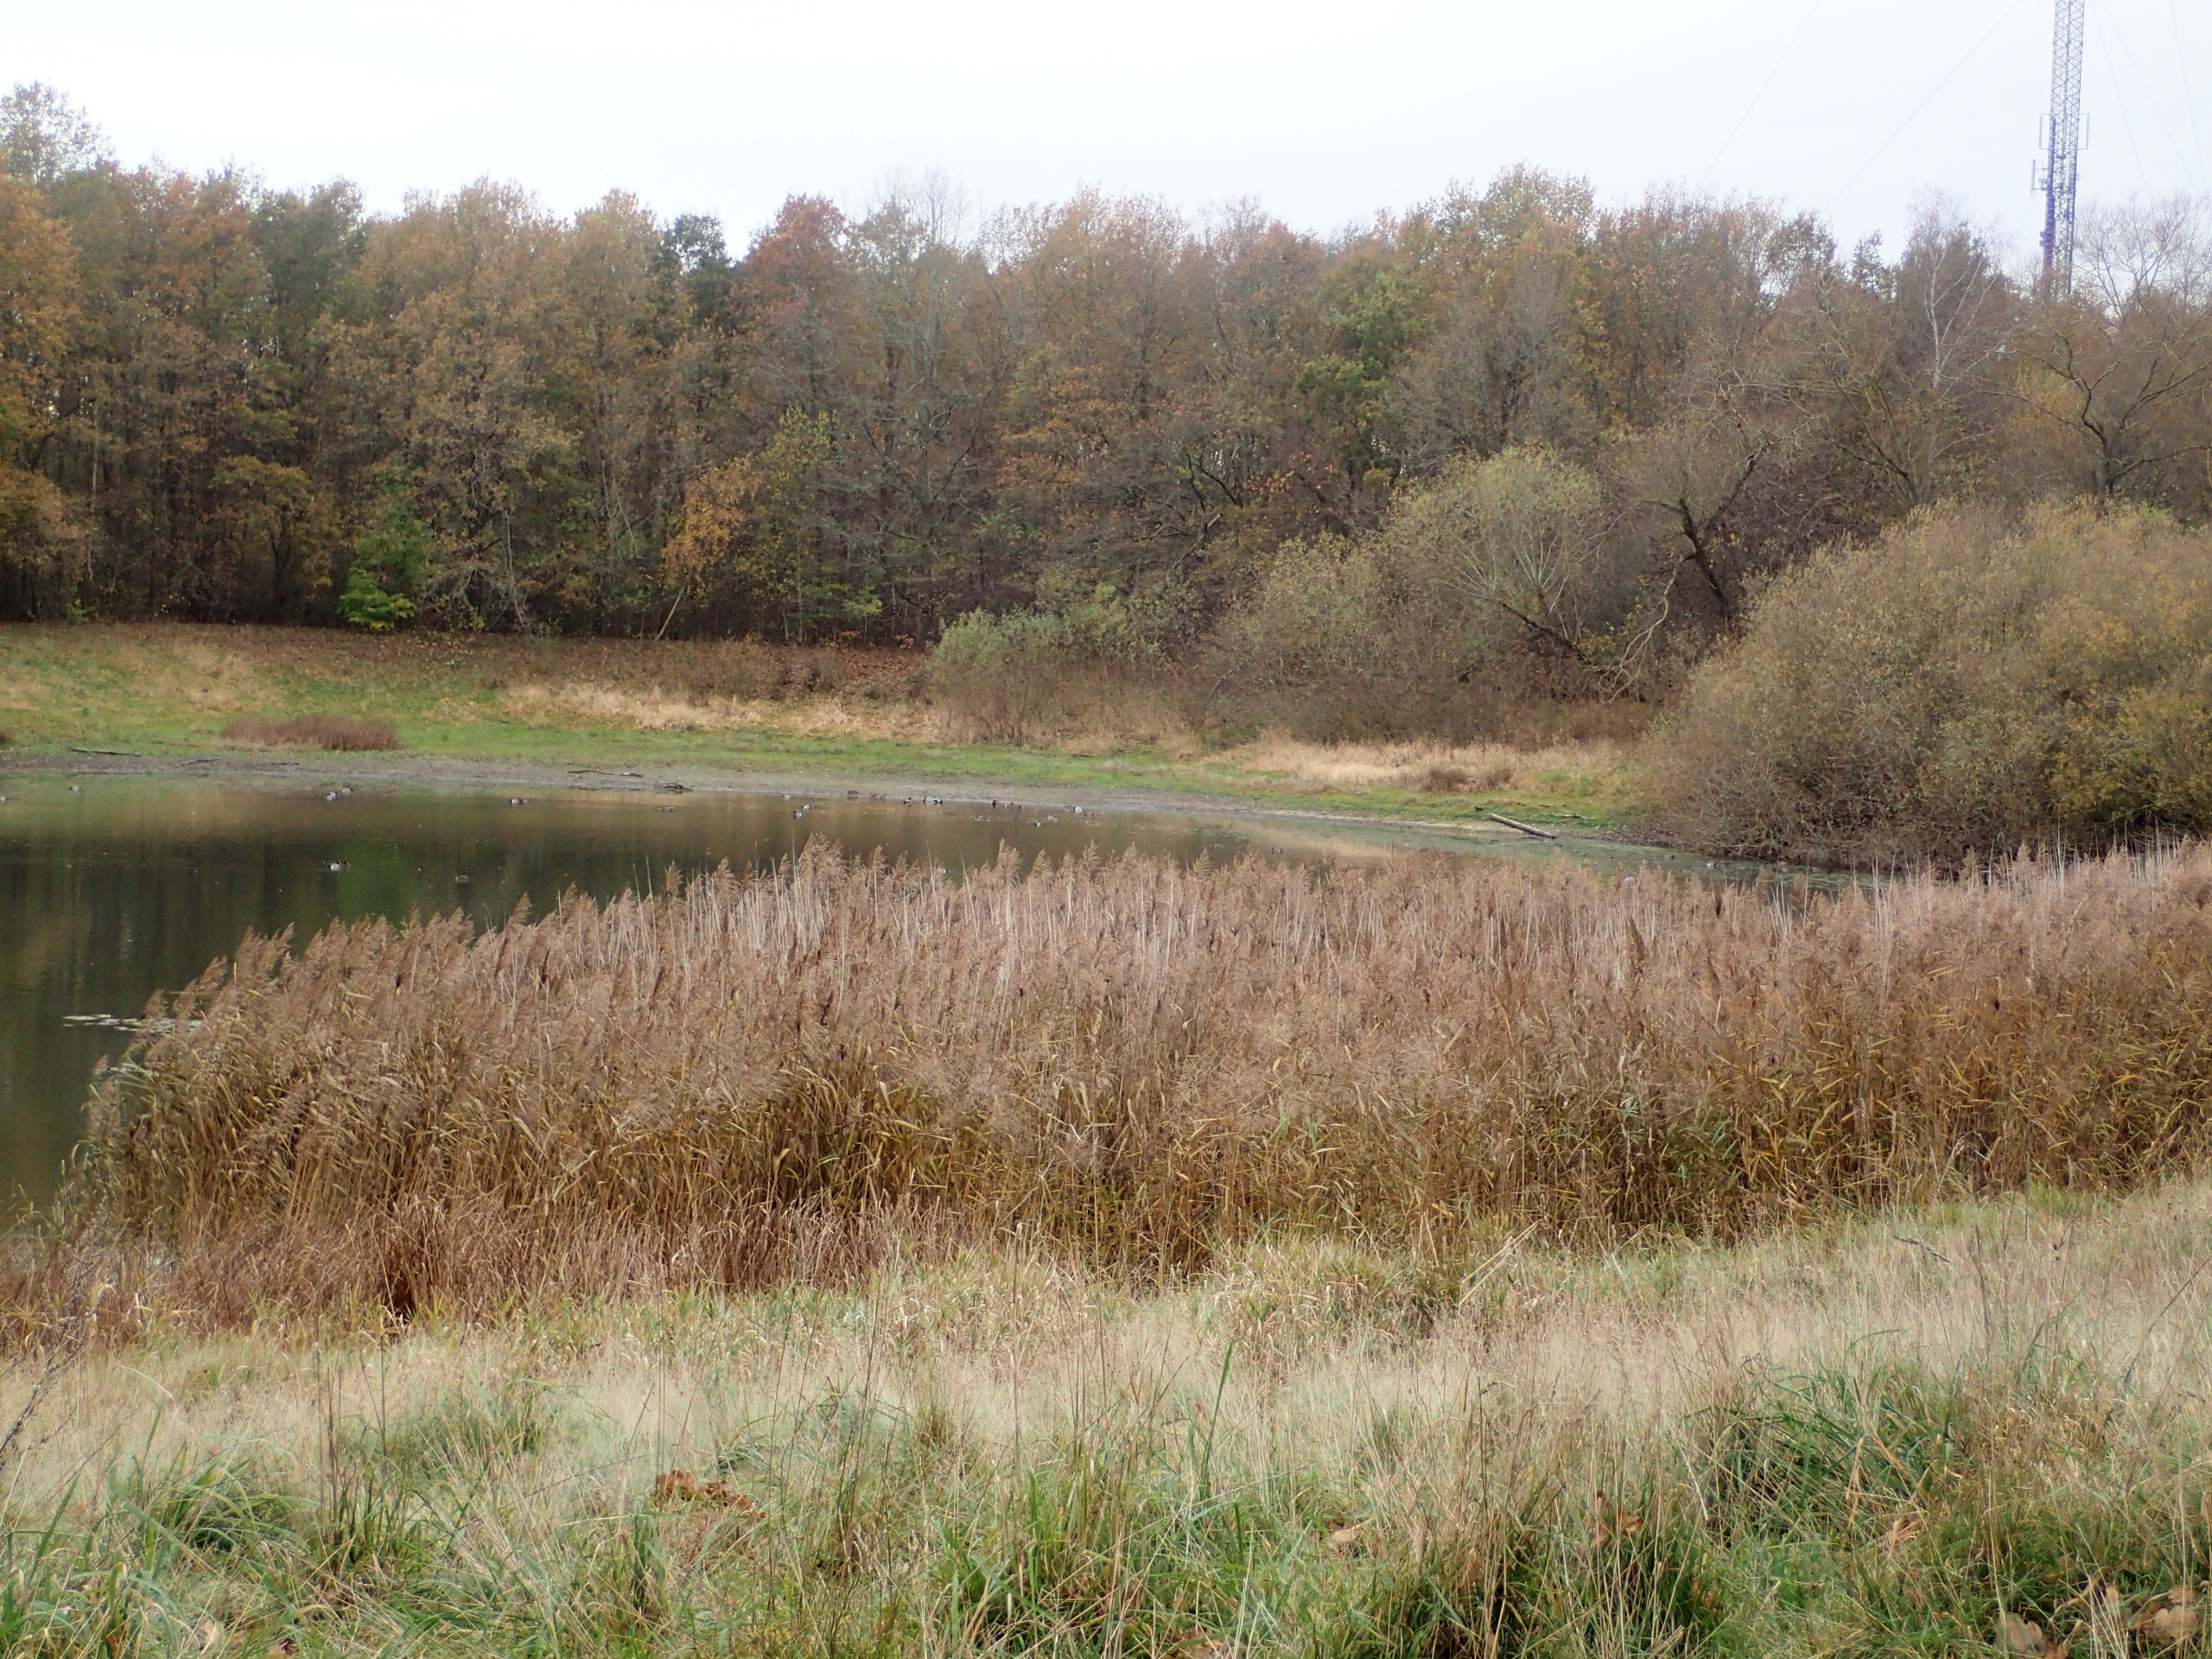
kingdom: Plantae
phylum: Tracheophyta
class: Liliopsida
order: Poales
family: Poaceae
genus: Phragmites
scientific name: Phragmites australis
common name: Tagrør
